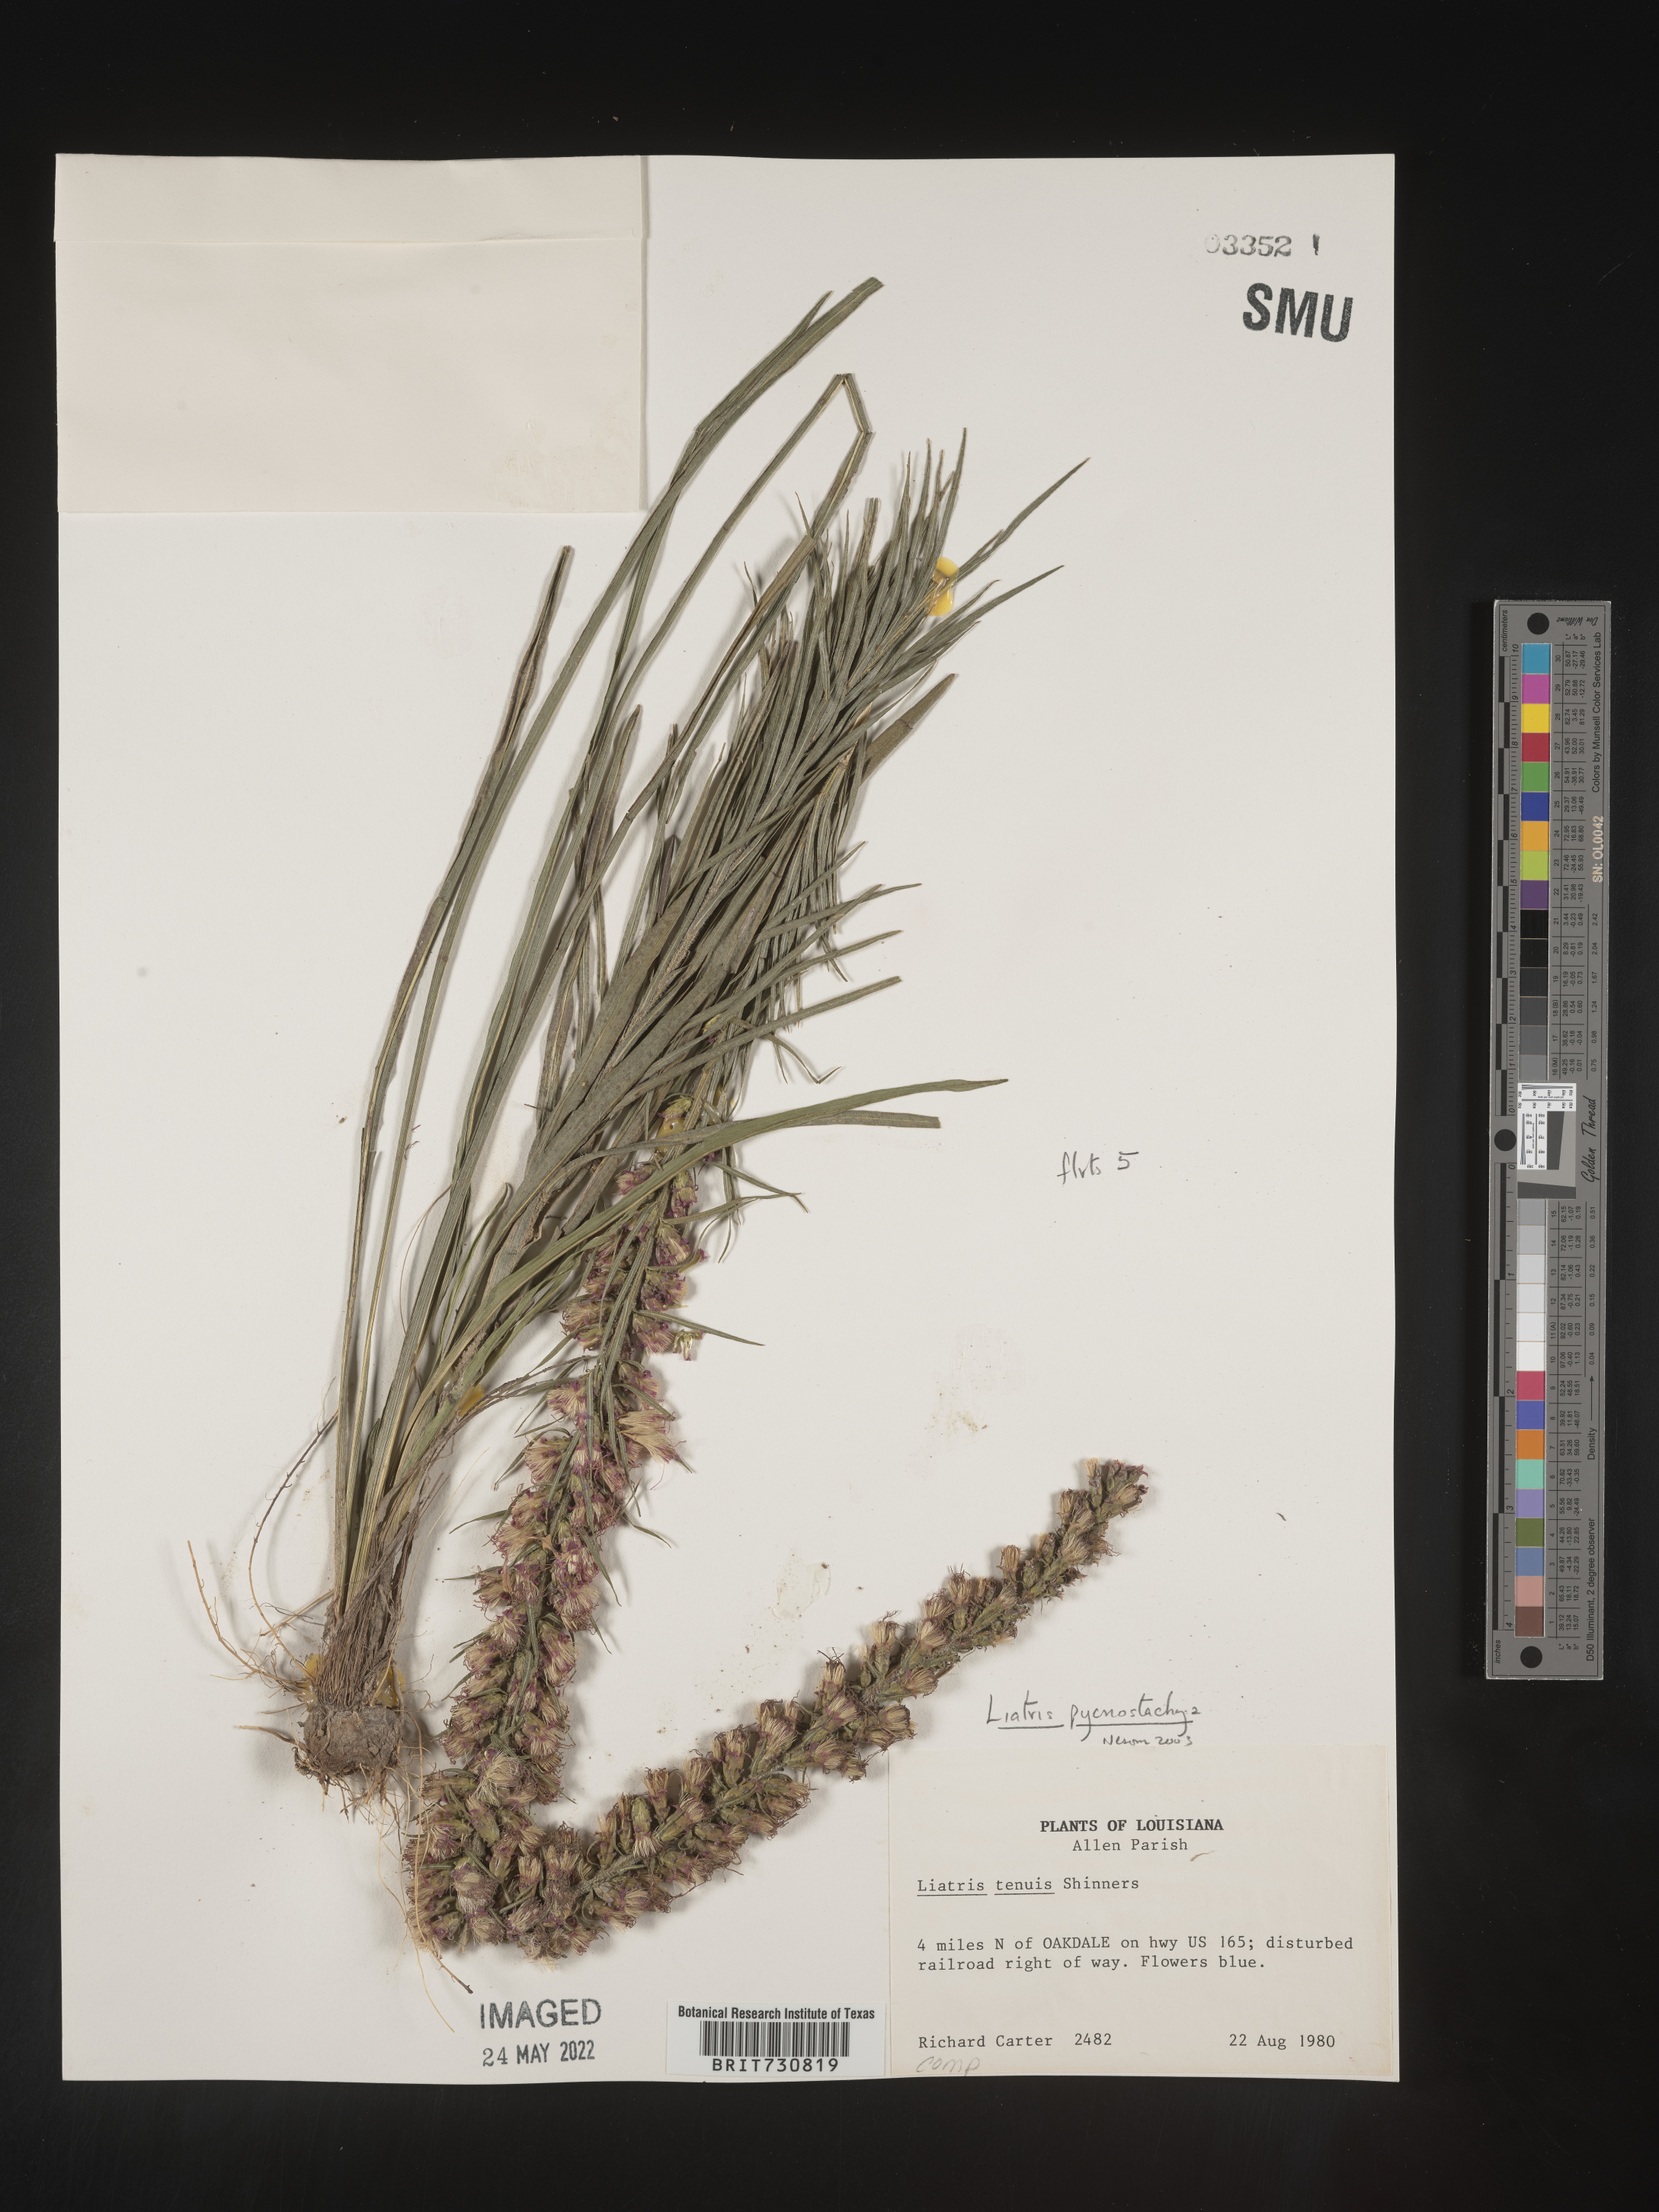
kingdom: Plantae
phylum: Tracheophyta
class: Magnoliopsida
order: Asterales
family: Asteraceae
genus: Liatris
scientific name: Liatris pycnostachya
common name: Cattail gayfeather
